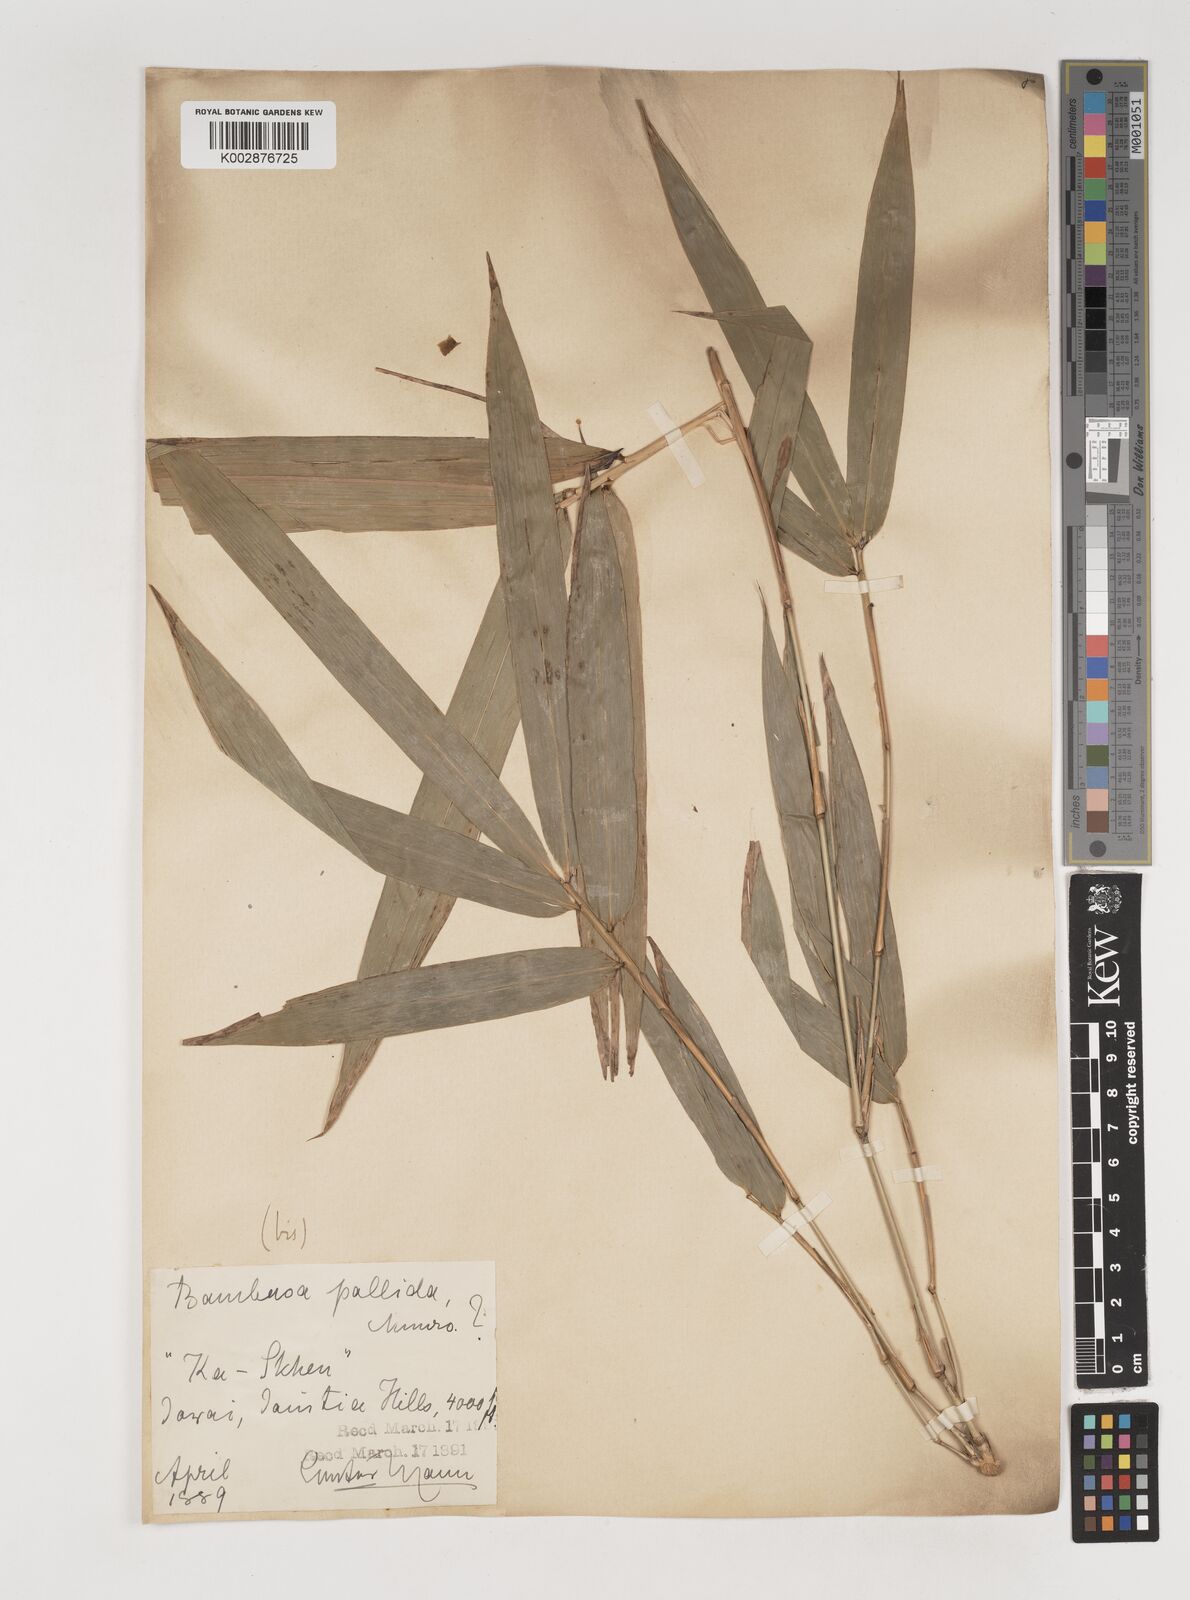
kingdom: Plantae
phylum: Tracheophyta
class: Liliopsida
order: Poales
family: Poaceae
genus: Bambusa
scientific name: Bambusa pallida
